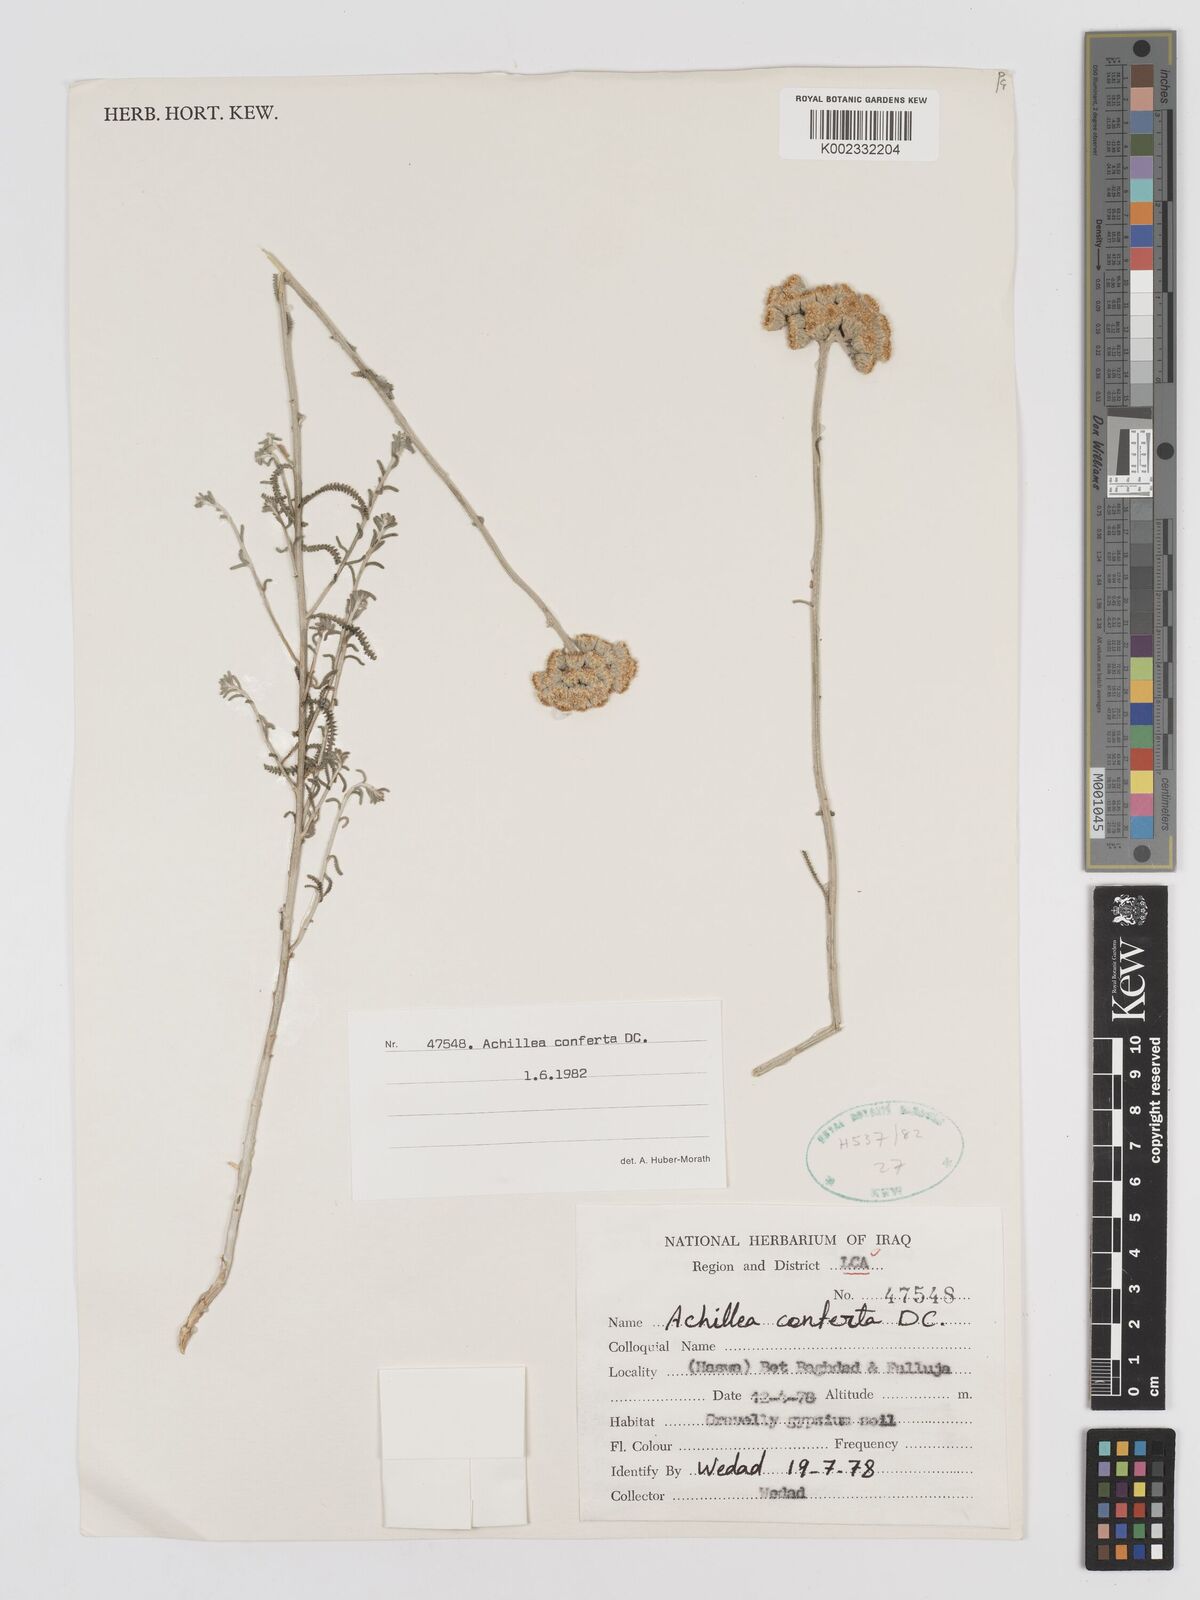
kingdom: Plantae
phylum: Tracheophyta
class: Magnoliopsida
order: Asterales
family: Asteraceae
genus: Achillea
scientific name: Achillea conferta
